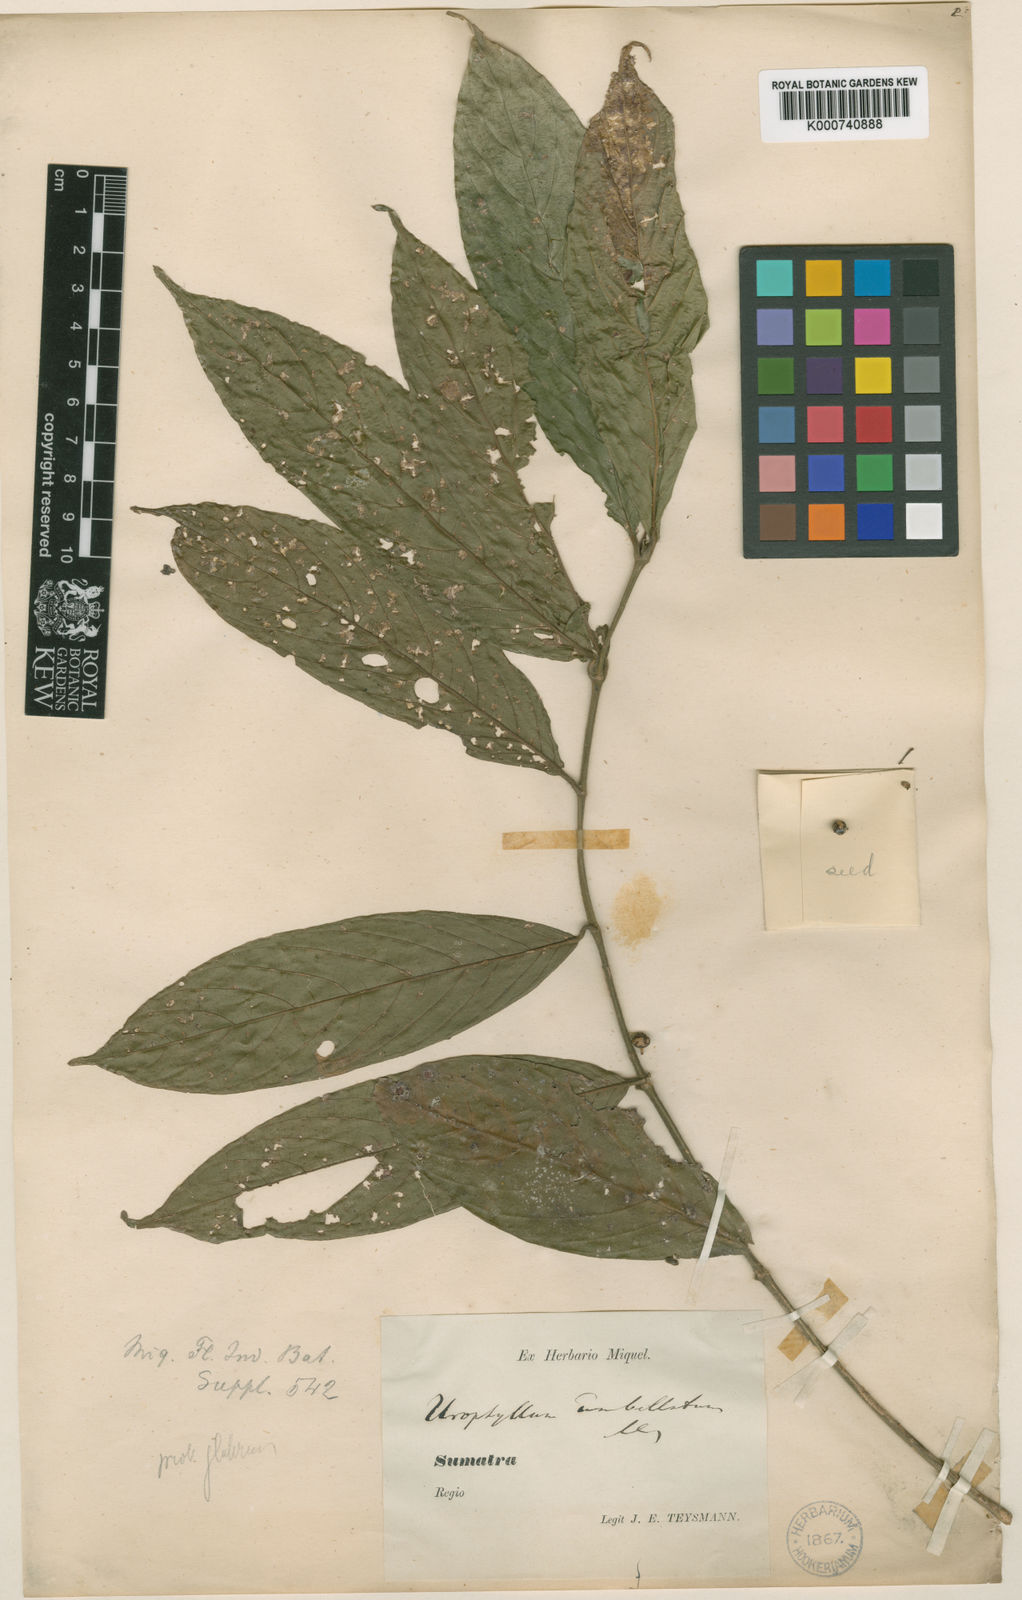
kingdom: Plantae
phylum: Tracheophyta
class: Magnoliopsida
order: Gentianales
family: Rubiaceae
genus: Urophyllum
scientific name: Urophyllum umbellulatum
